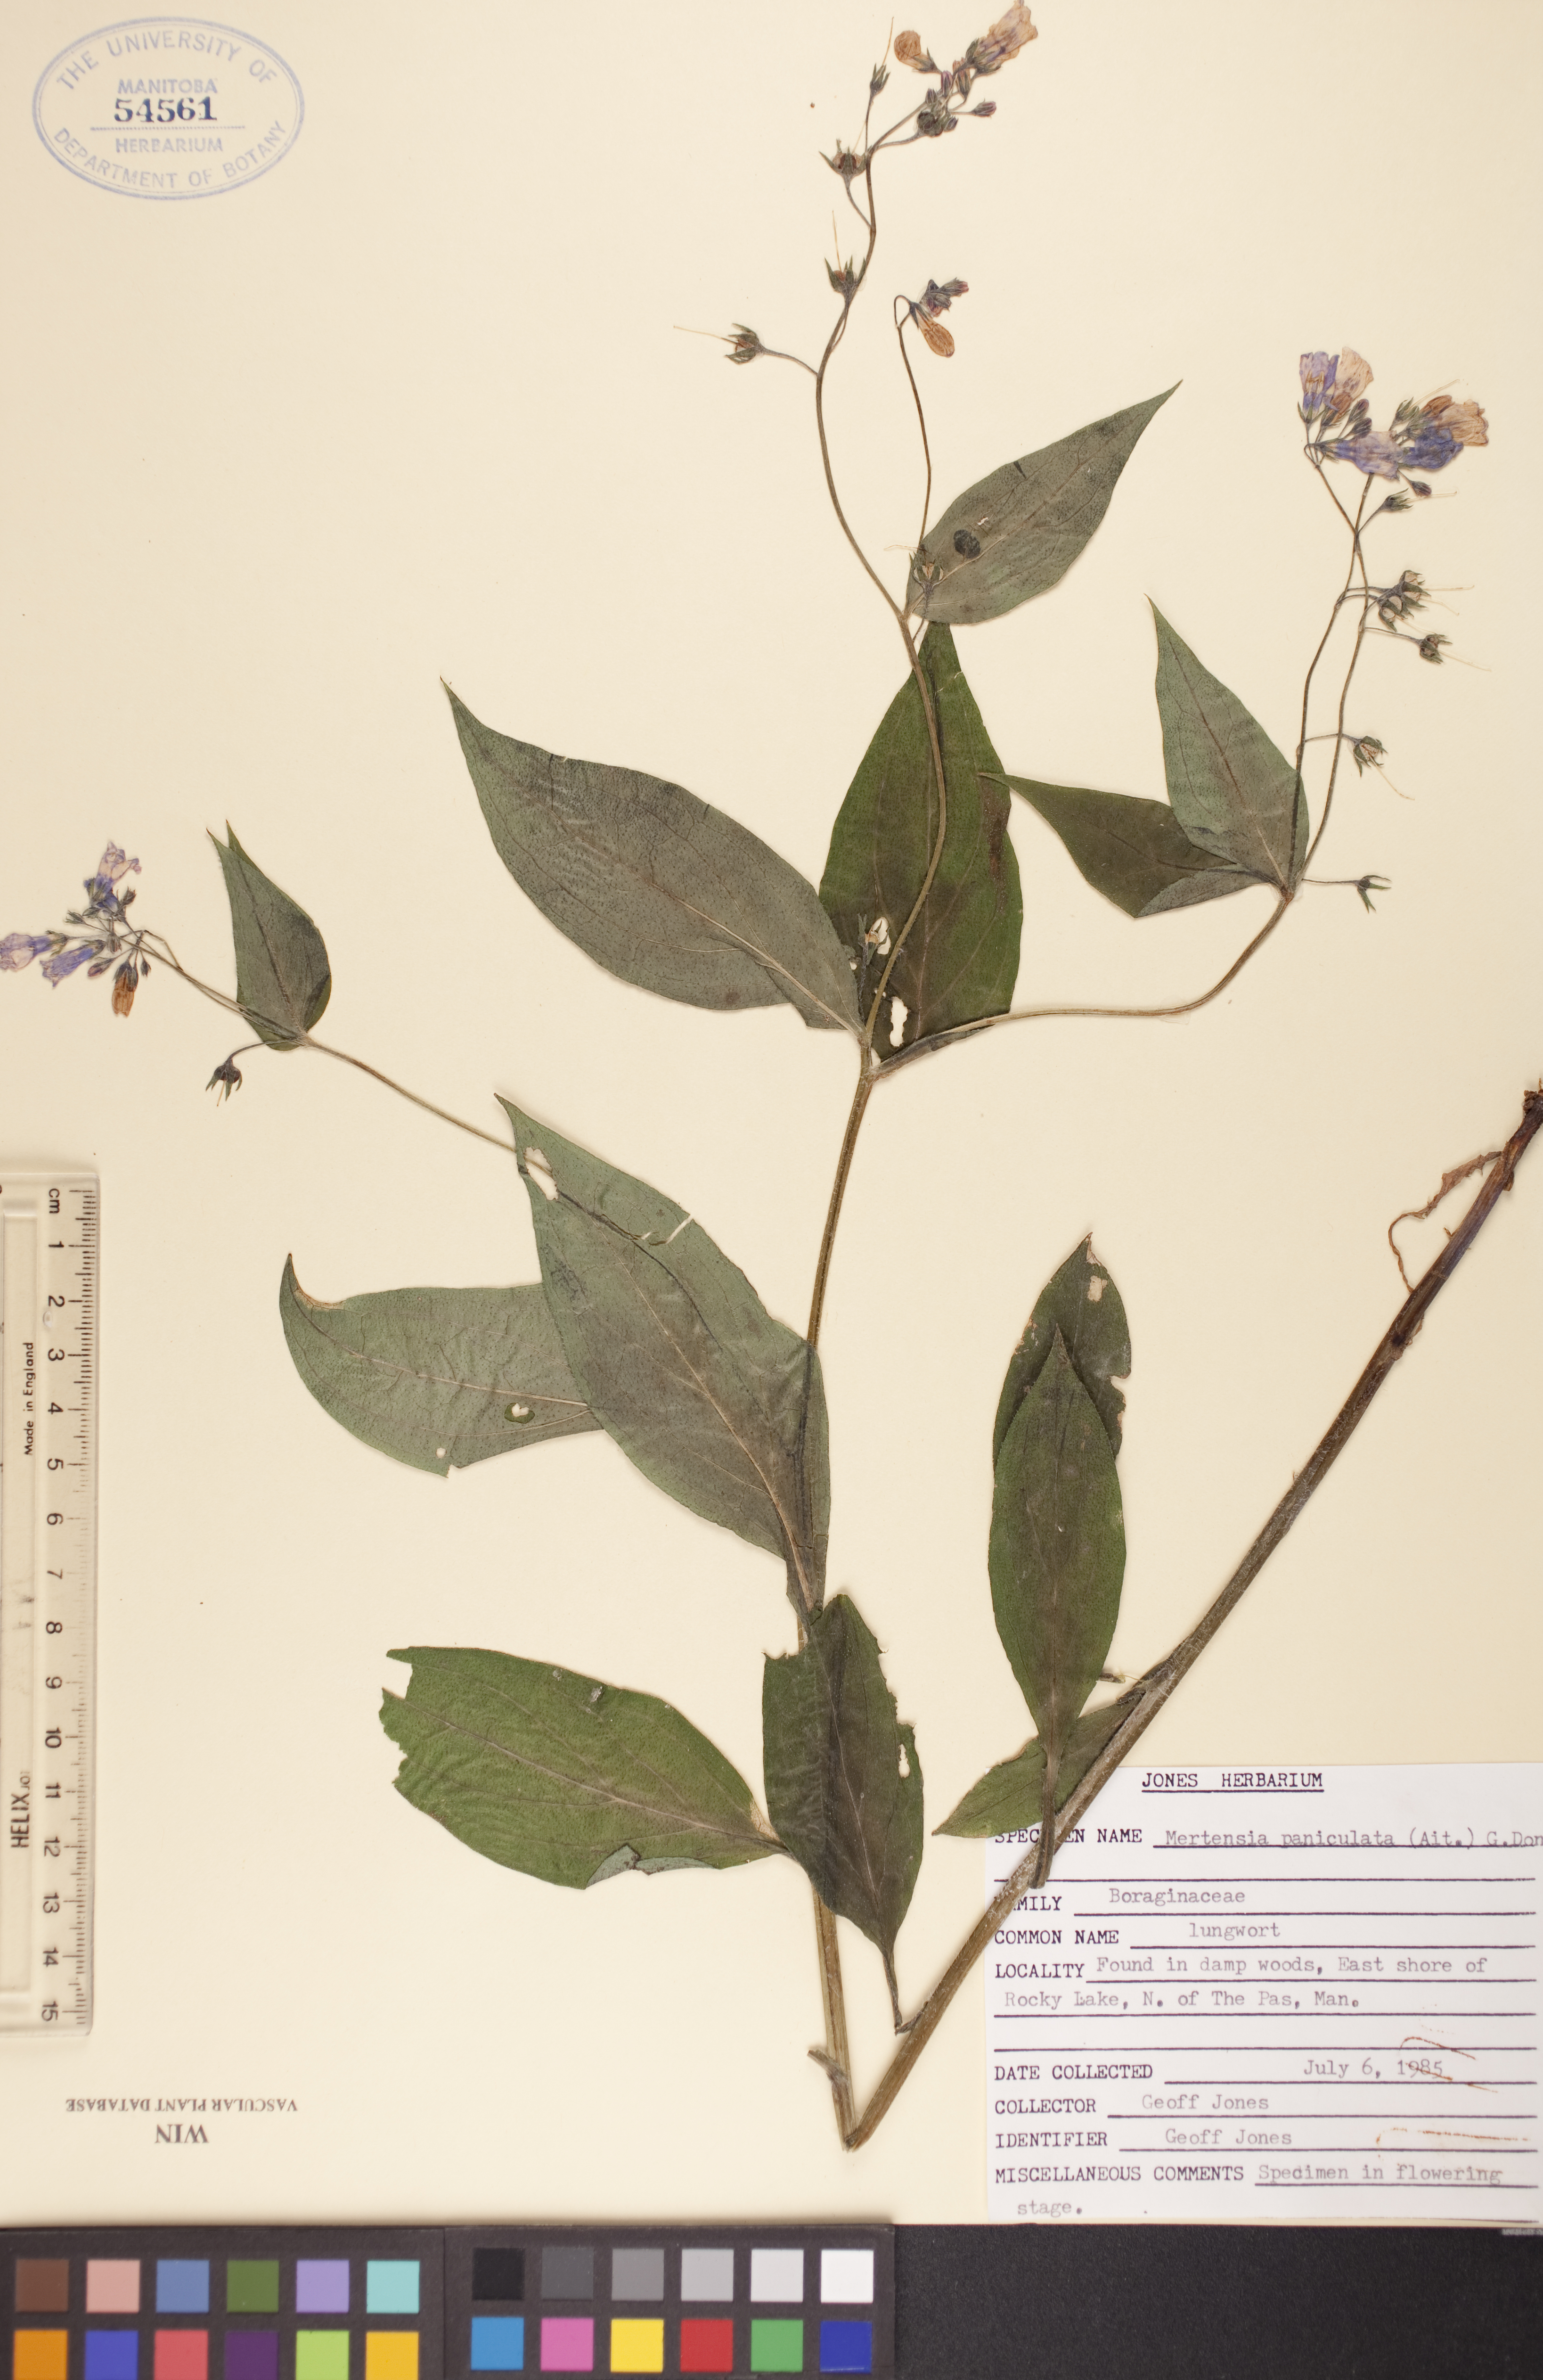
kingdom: Plantae
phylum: Tracheophyta
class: Magnoliopsida
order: Boraginales
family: Boraginaceae
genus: Mertensia
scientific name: Mertensia paniculata
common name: Panicled bluebells
